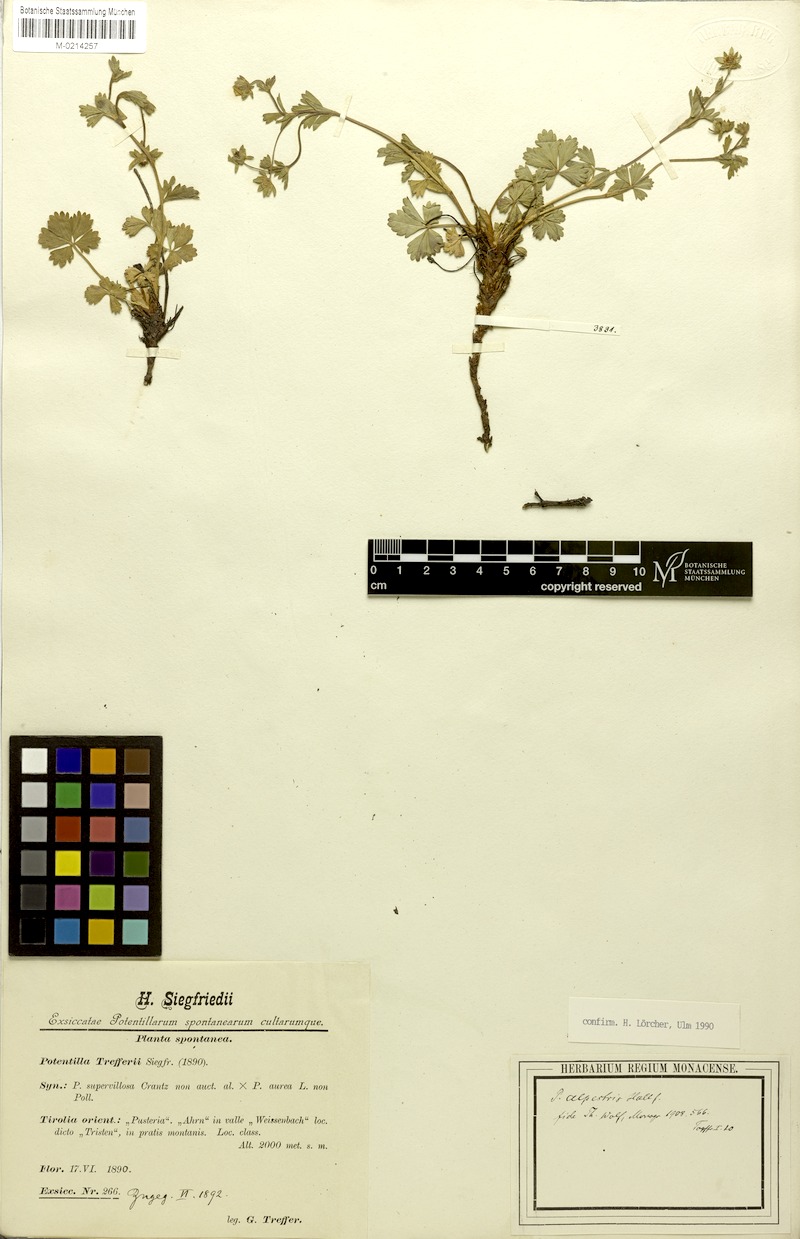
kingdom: Plantae
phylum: Tracheophyta
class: Magnoliopsida
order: Rosales
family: Rosaceae
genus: Potentilla
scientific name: Potentilla crantzii
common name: Alpine cinquefoil
